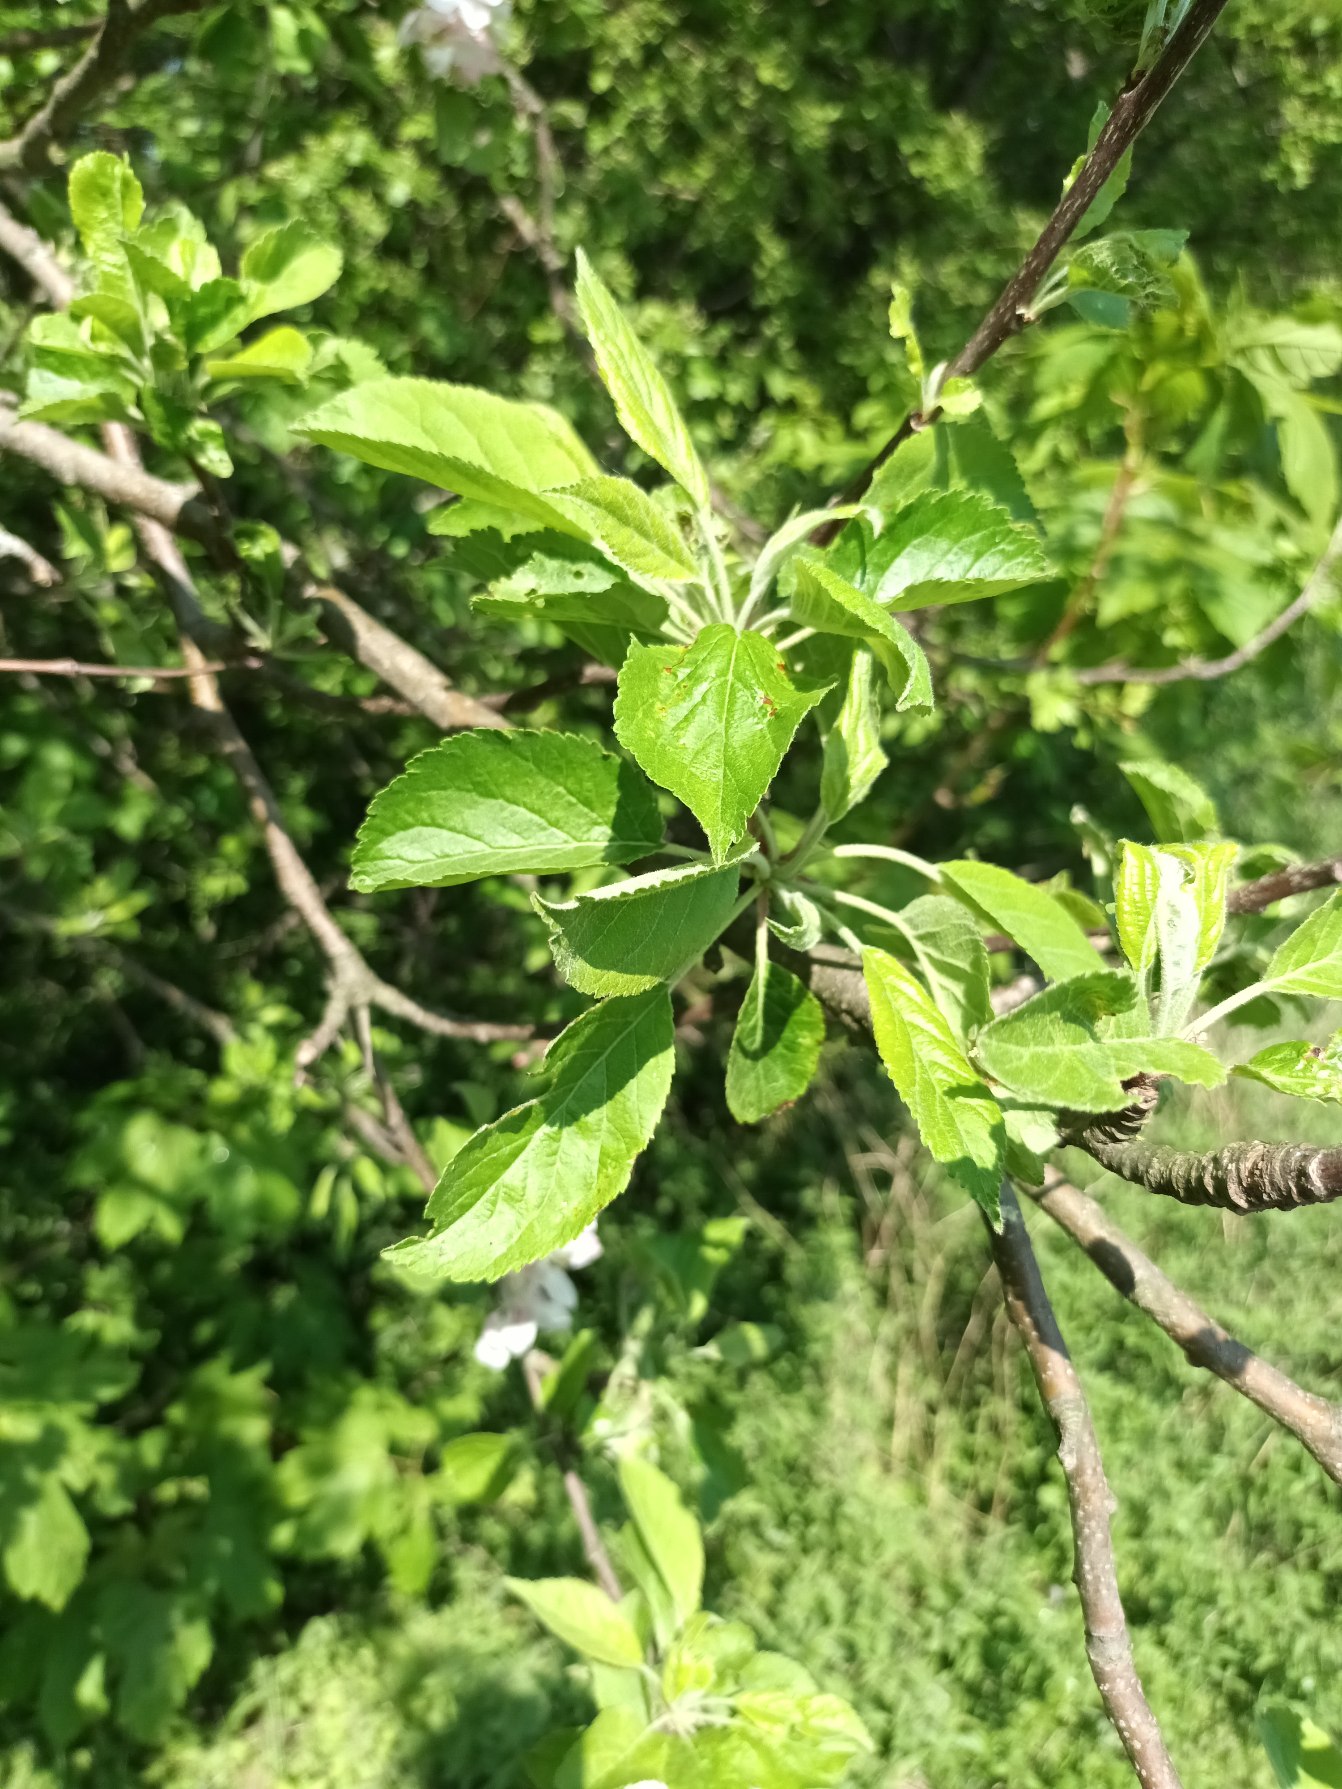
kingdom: Plantae
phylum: Tracheophyta
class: Magnoliopsida
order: Rosales
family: Rosaceae
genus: Malus
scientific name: Malus domestica
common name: Sød-æble
